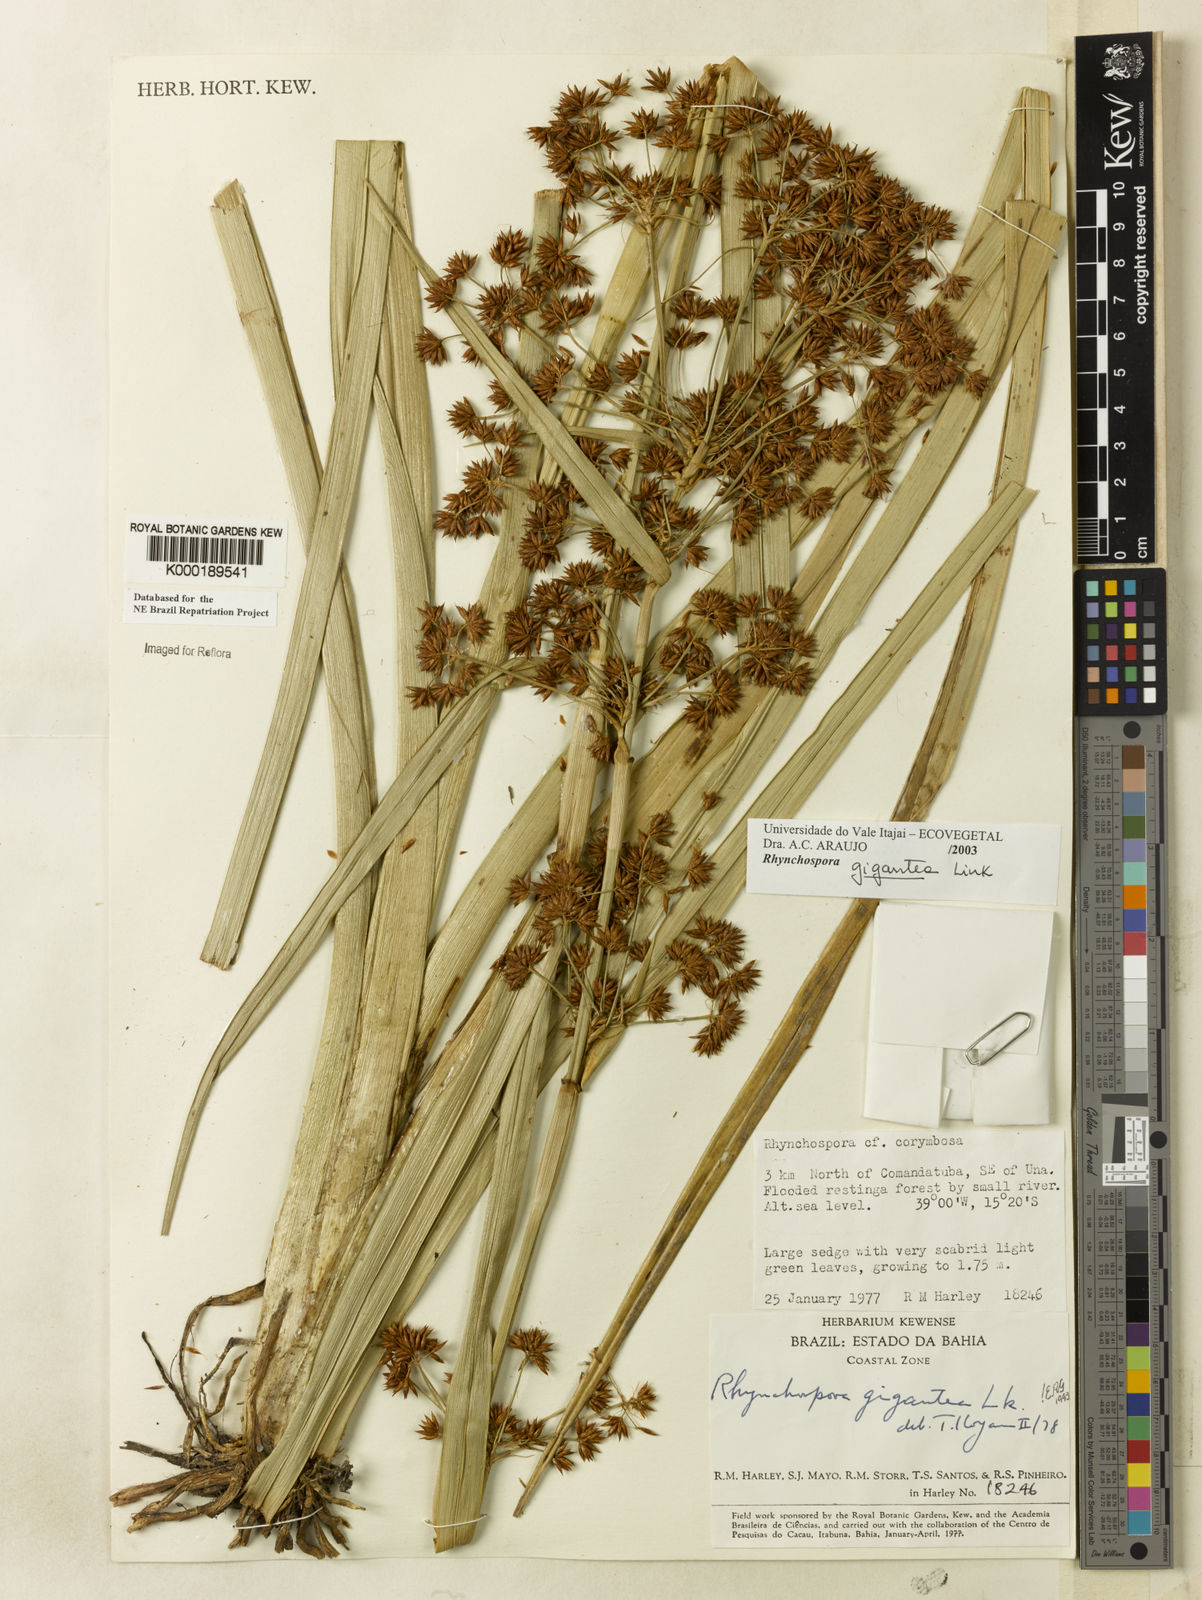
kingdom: Plantae
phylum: Tracheophyta
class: Liliopsida
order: Poales
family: Cyperaceae
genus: Rhynchospora
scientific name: Rhynchospora gigantea
